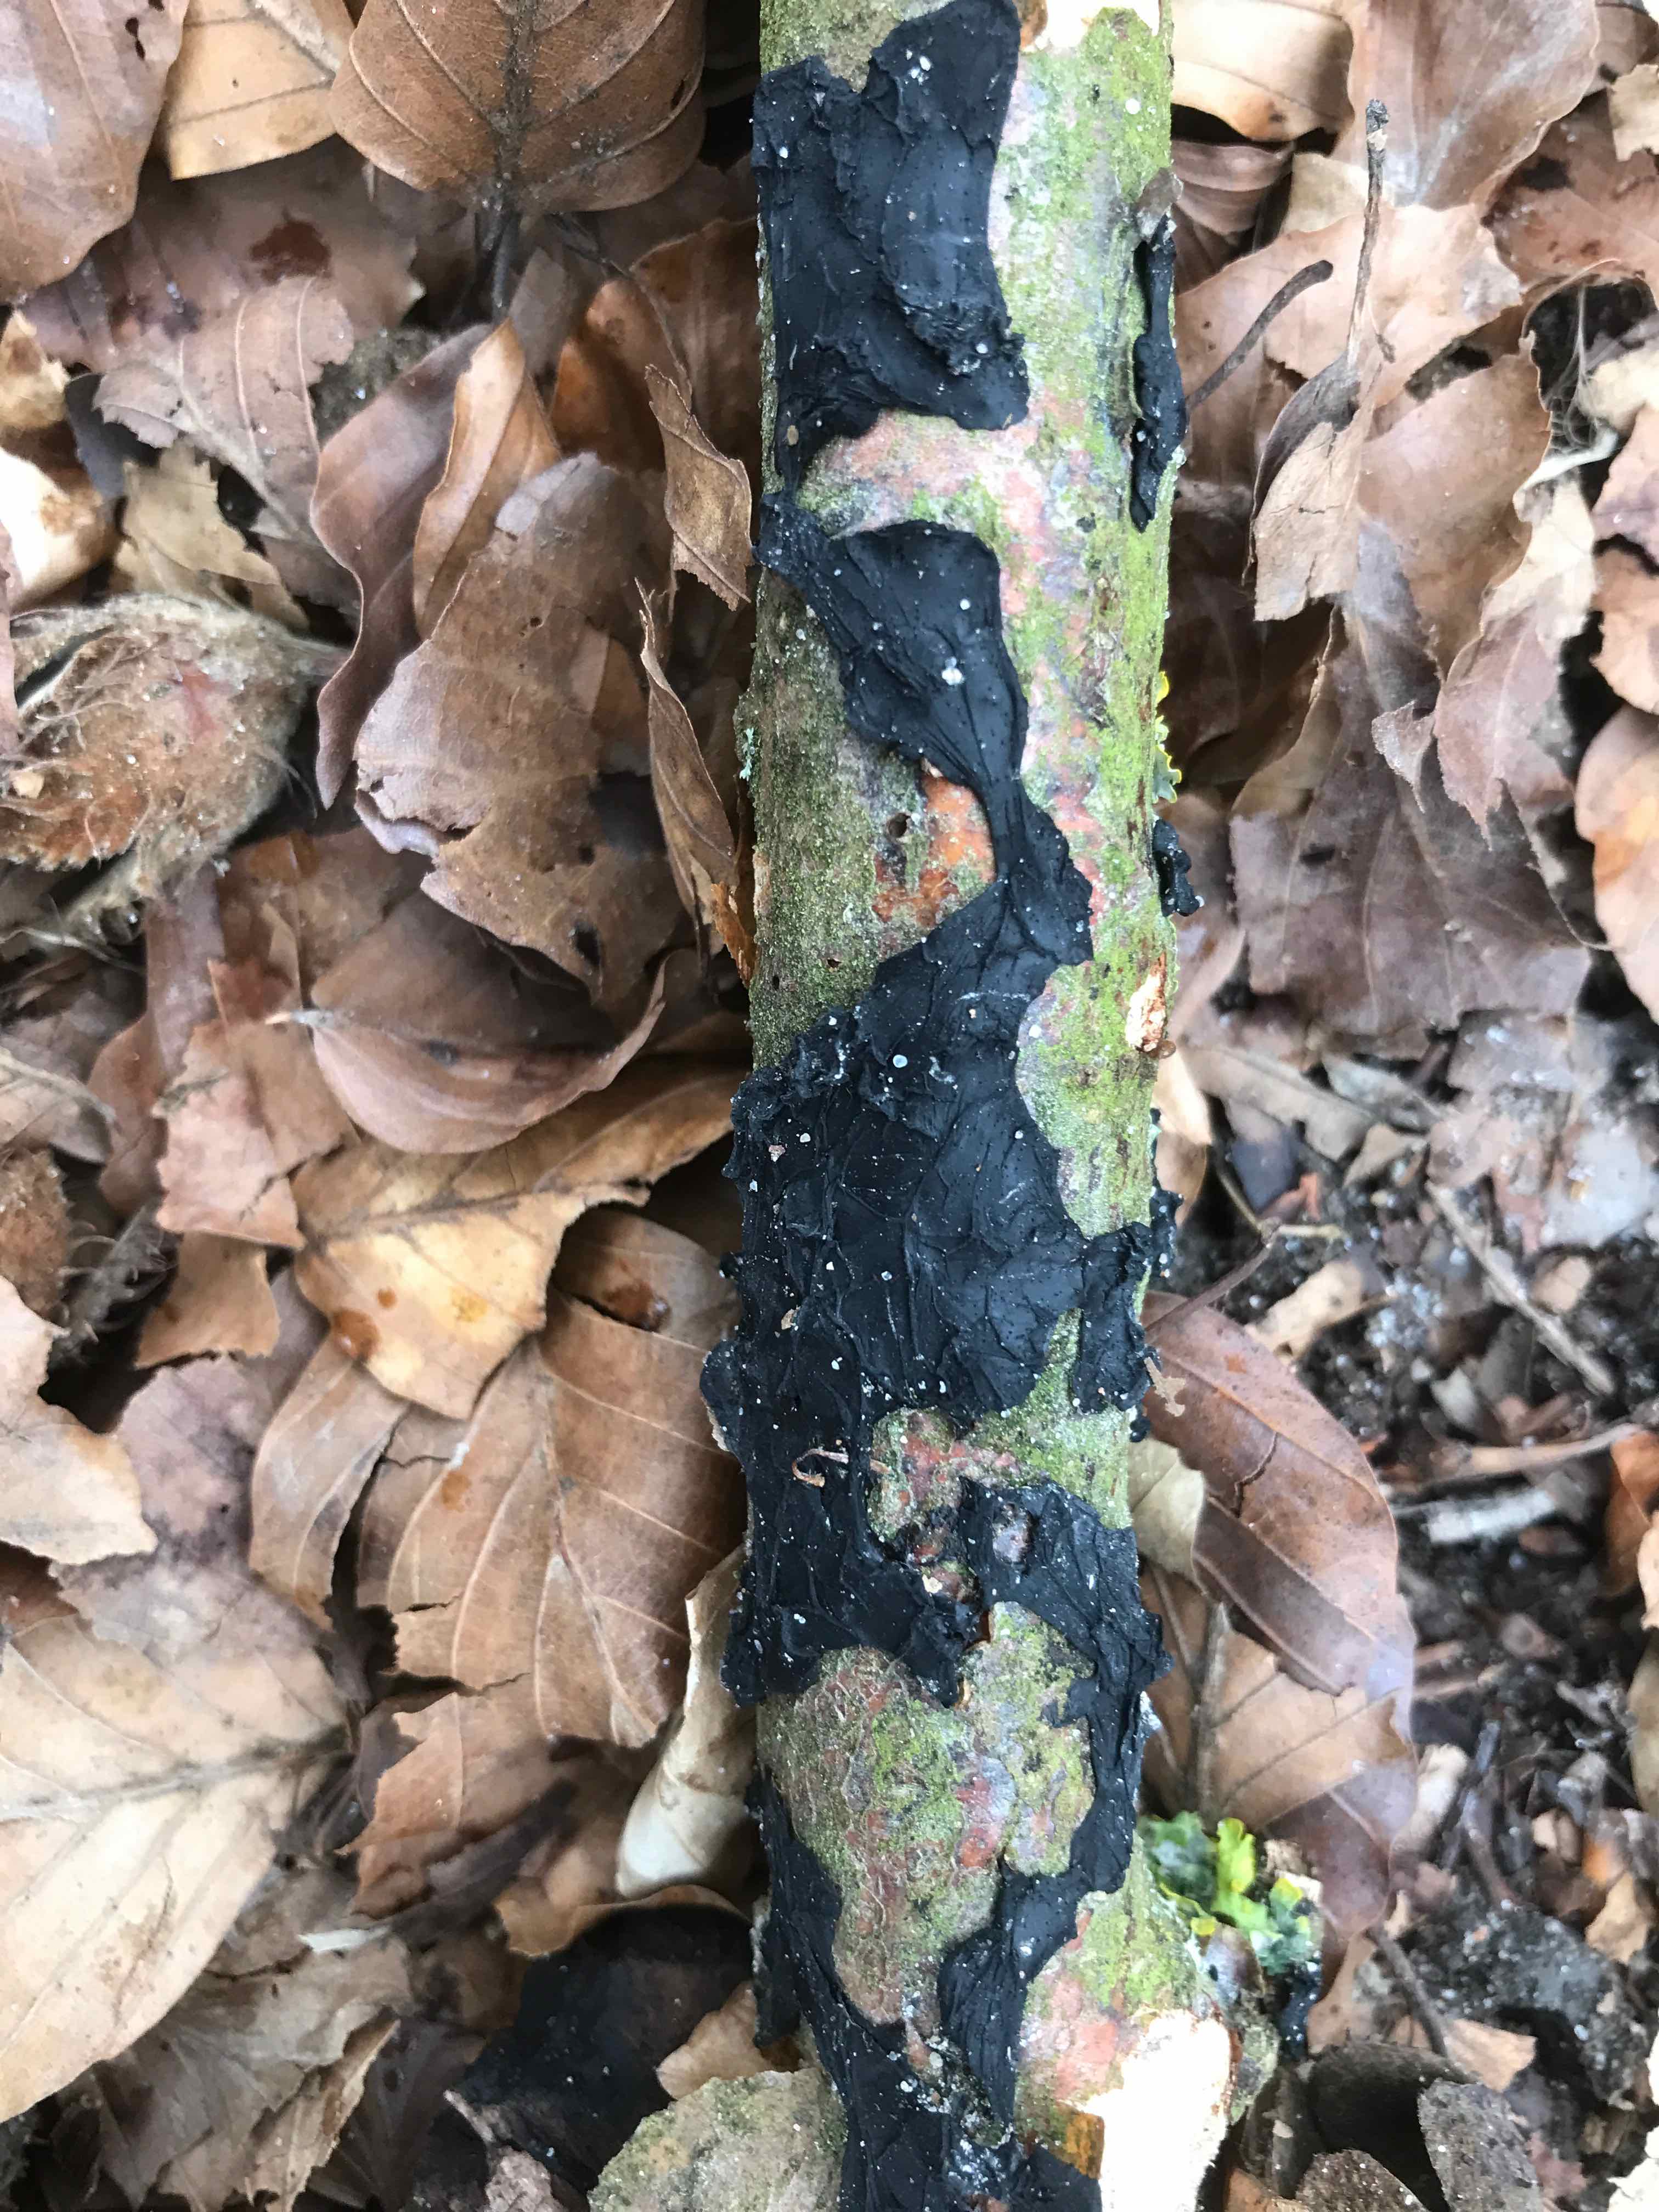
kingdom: Fungi
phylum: Basidiomycota
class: Agaricomycetes
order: Auriculariales
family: Auriculariaceae
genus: Exidia
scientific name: Exidia nigricans
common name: almindelig bævretop
